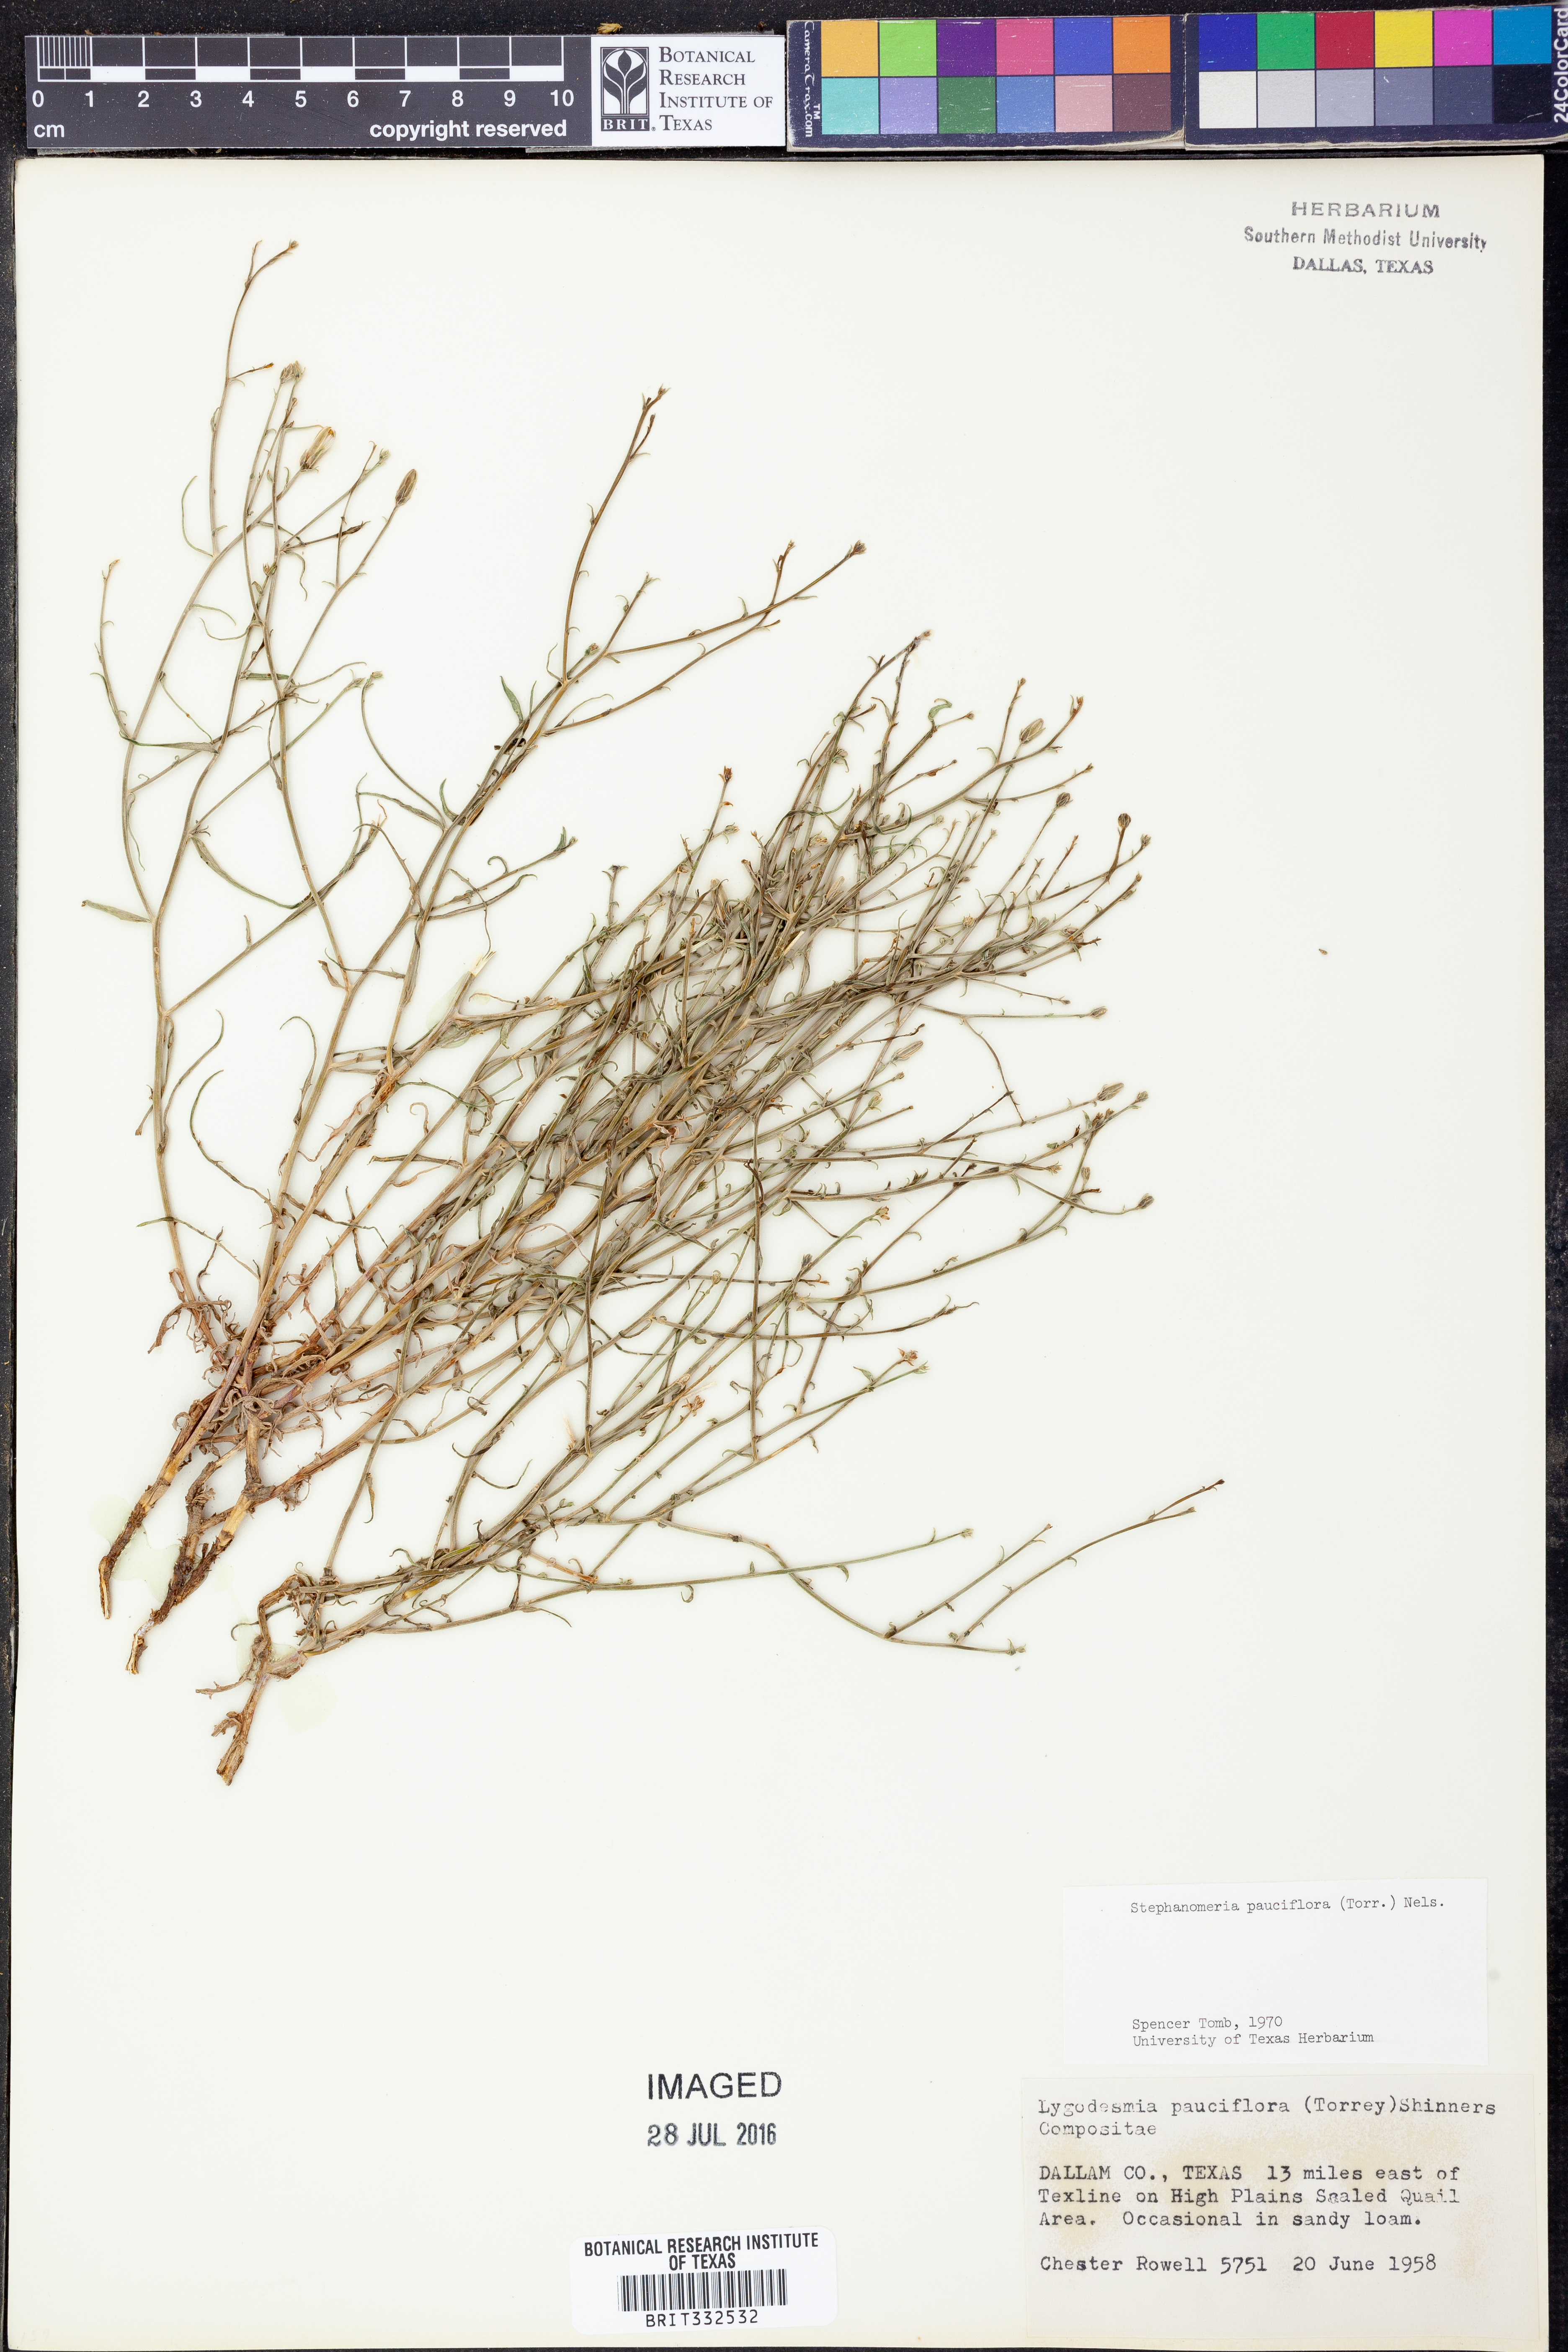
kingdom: Plantae
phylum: Tracheophyta
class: Magnoliopsida
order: Asterales
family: Asteraceae
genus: Stephanomeria
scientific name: Stephanomeria pauciflora
